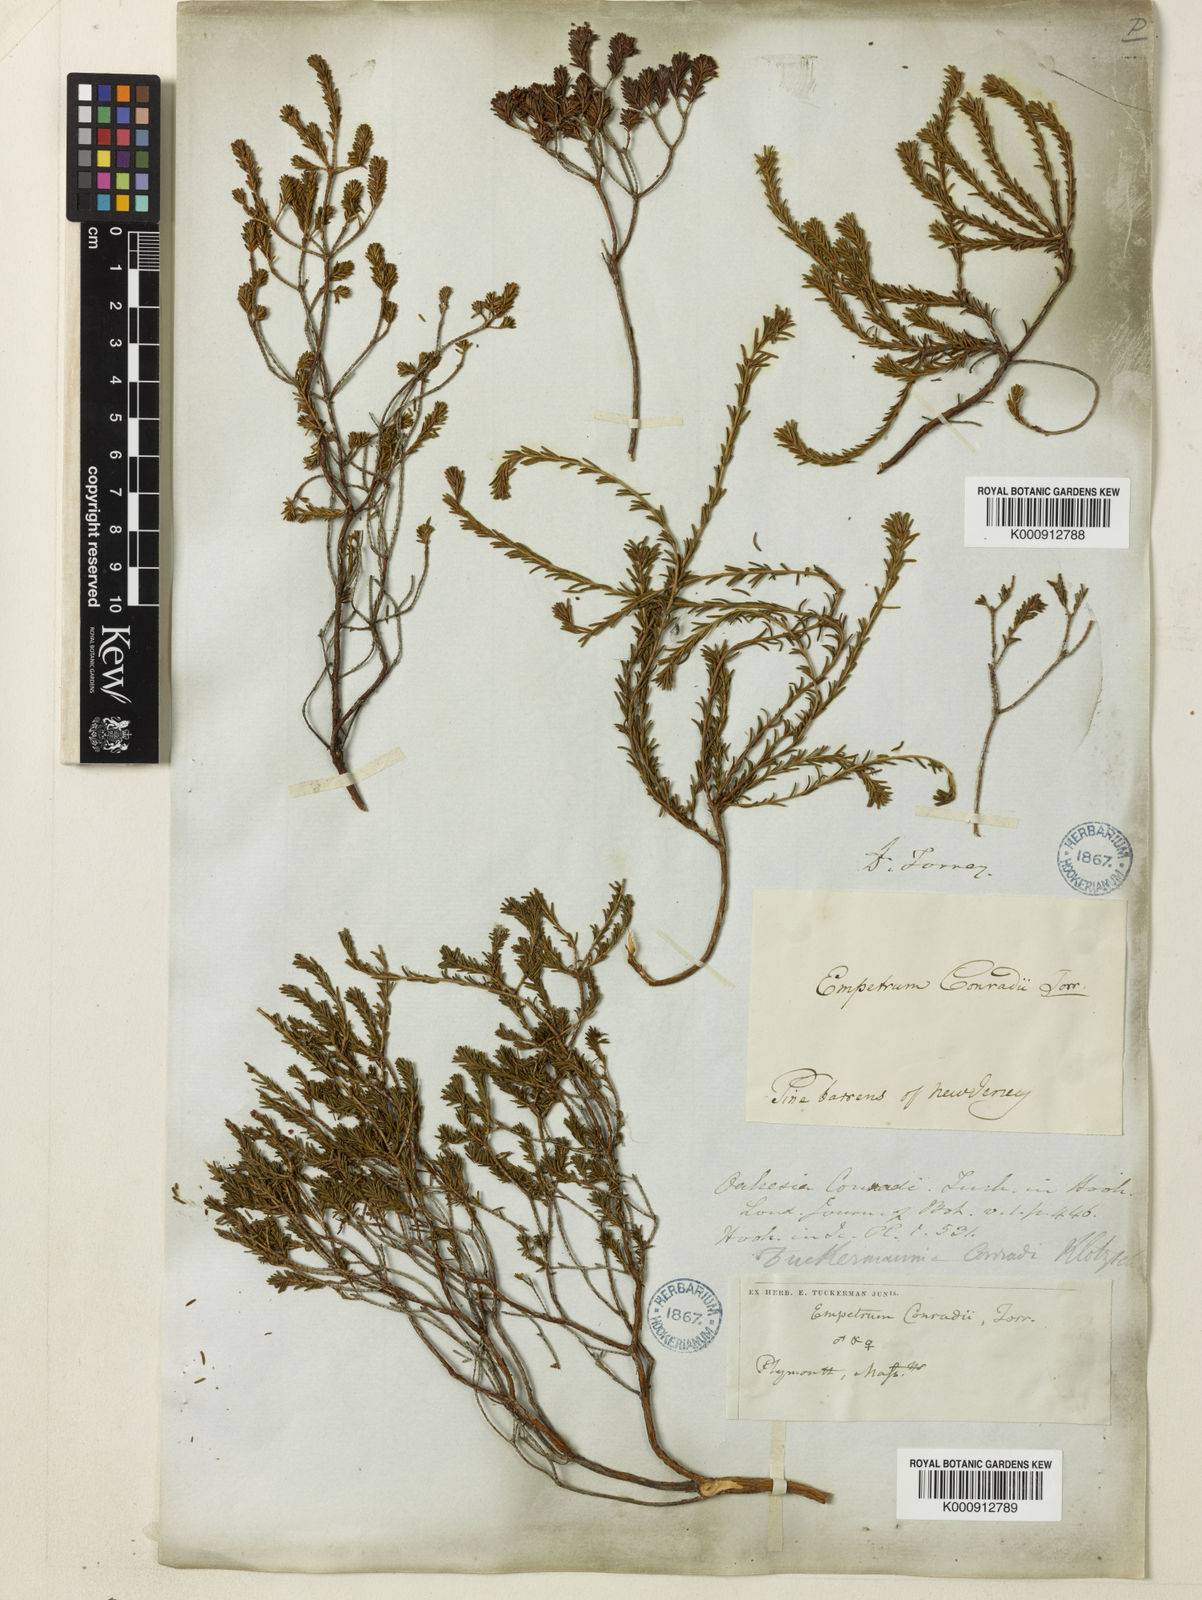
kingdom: Plantae
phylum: Tracheophyta
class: Magnoliopsida
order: Ericales
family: Ericaceae
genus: Corema
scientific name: Corema
